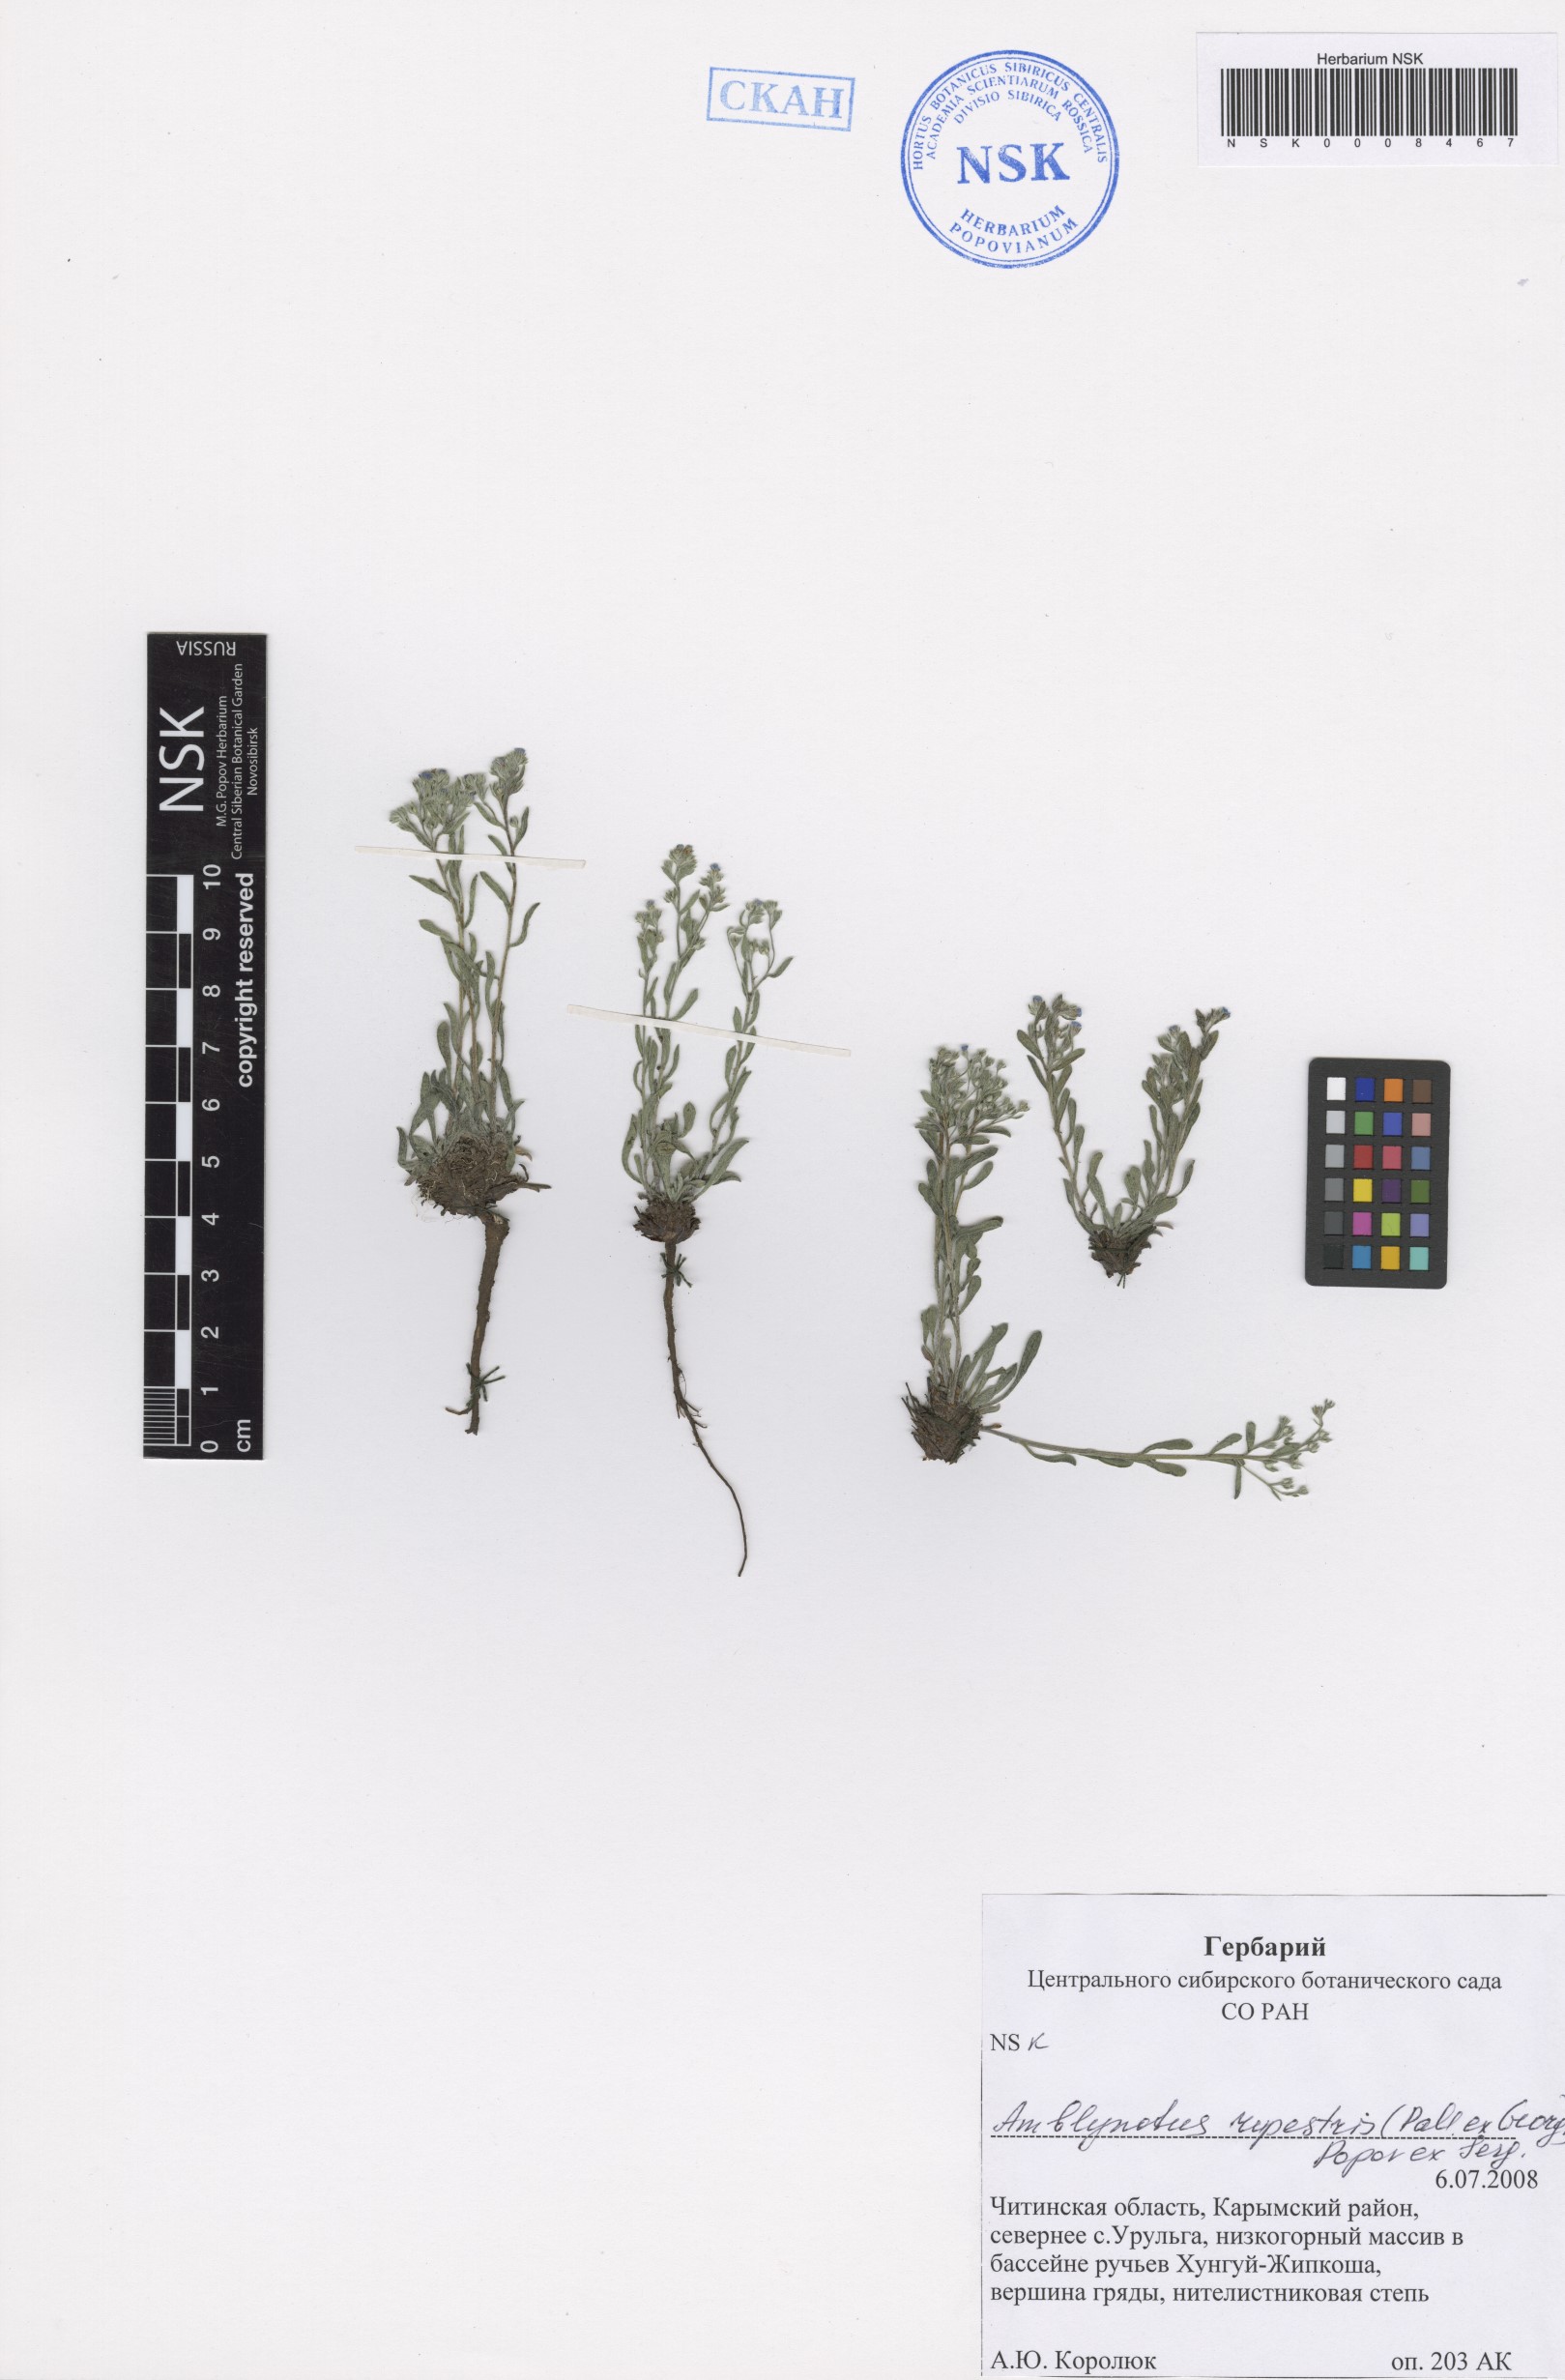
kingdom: Plantae
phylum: Tracheophyta
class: Magnoliopsida
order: Boraginales
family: Boraginaceae
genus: Eritrichium
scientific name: Eritrichium rupestre
